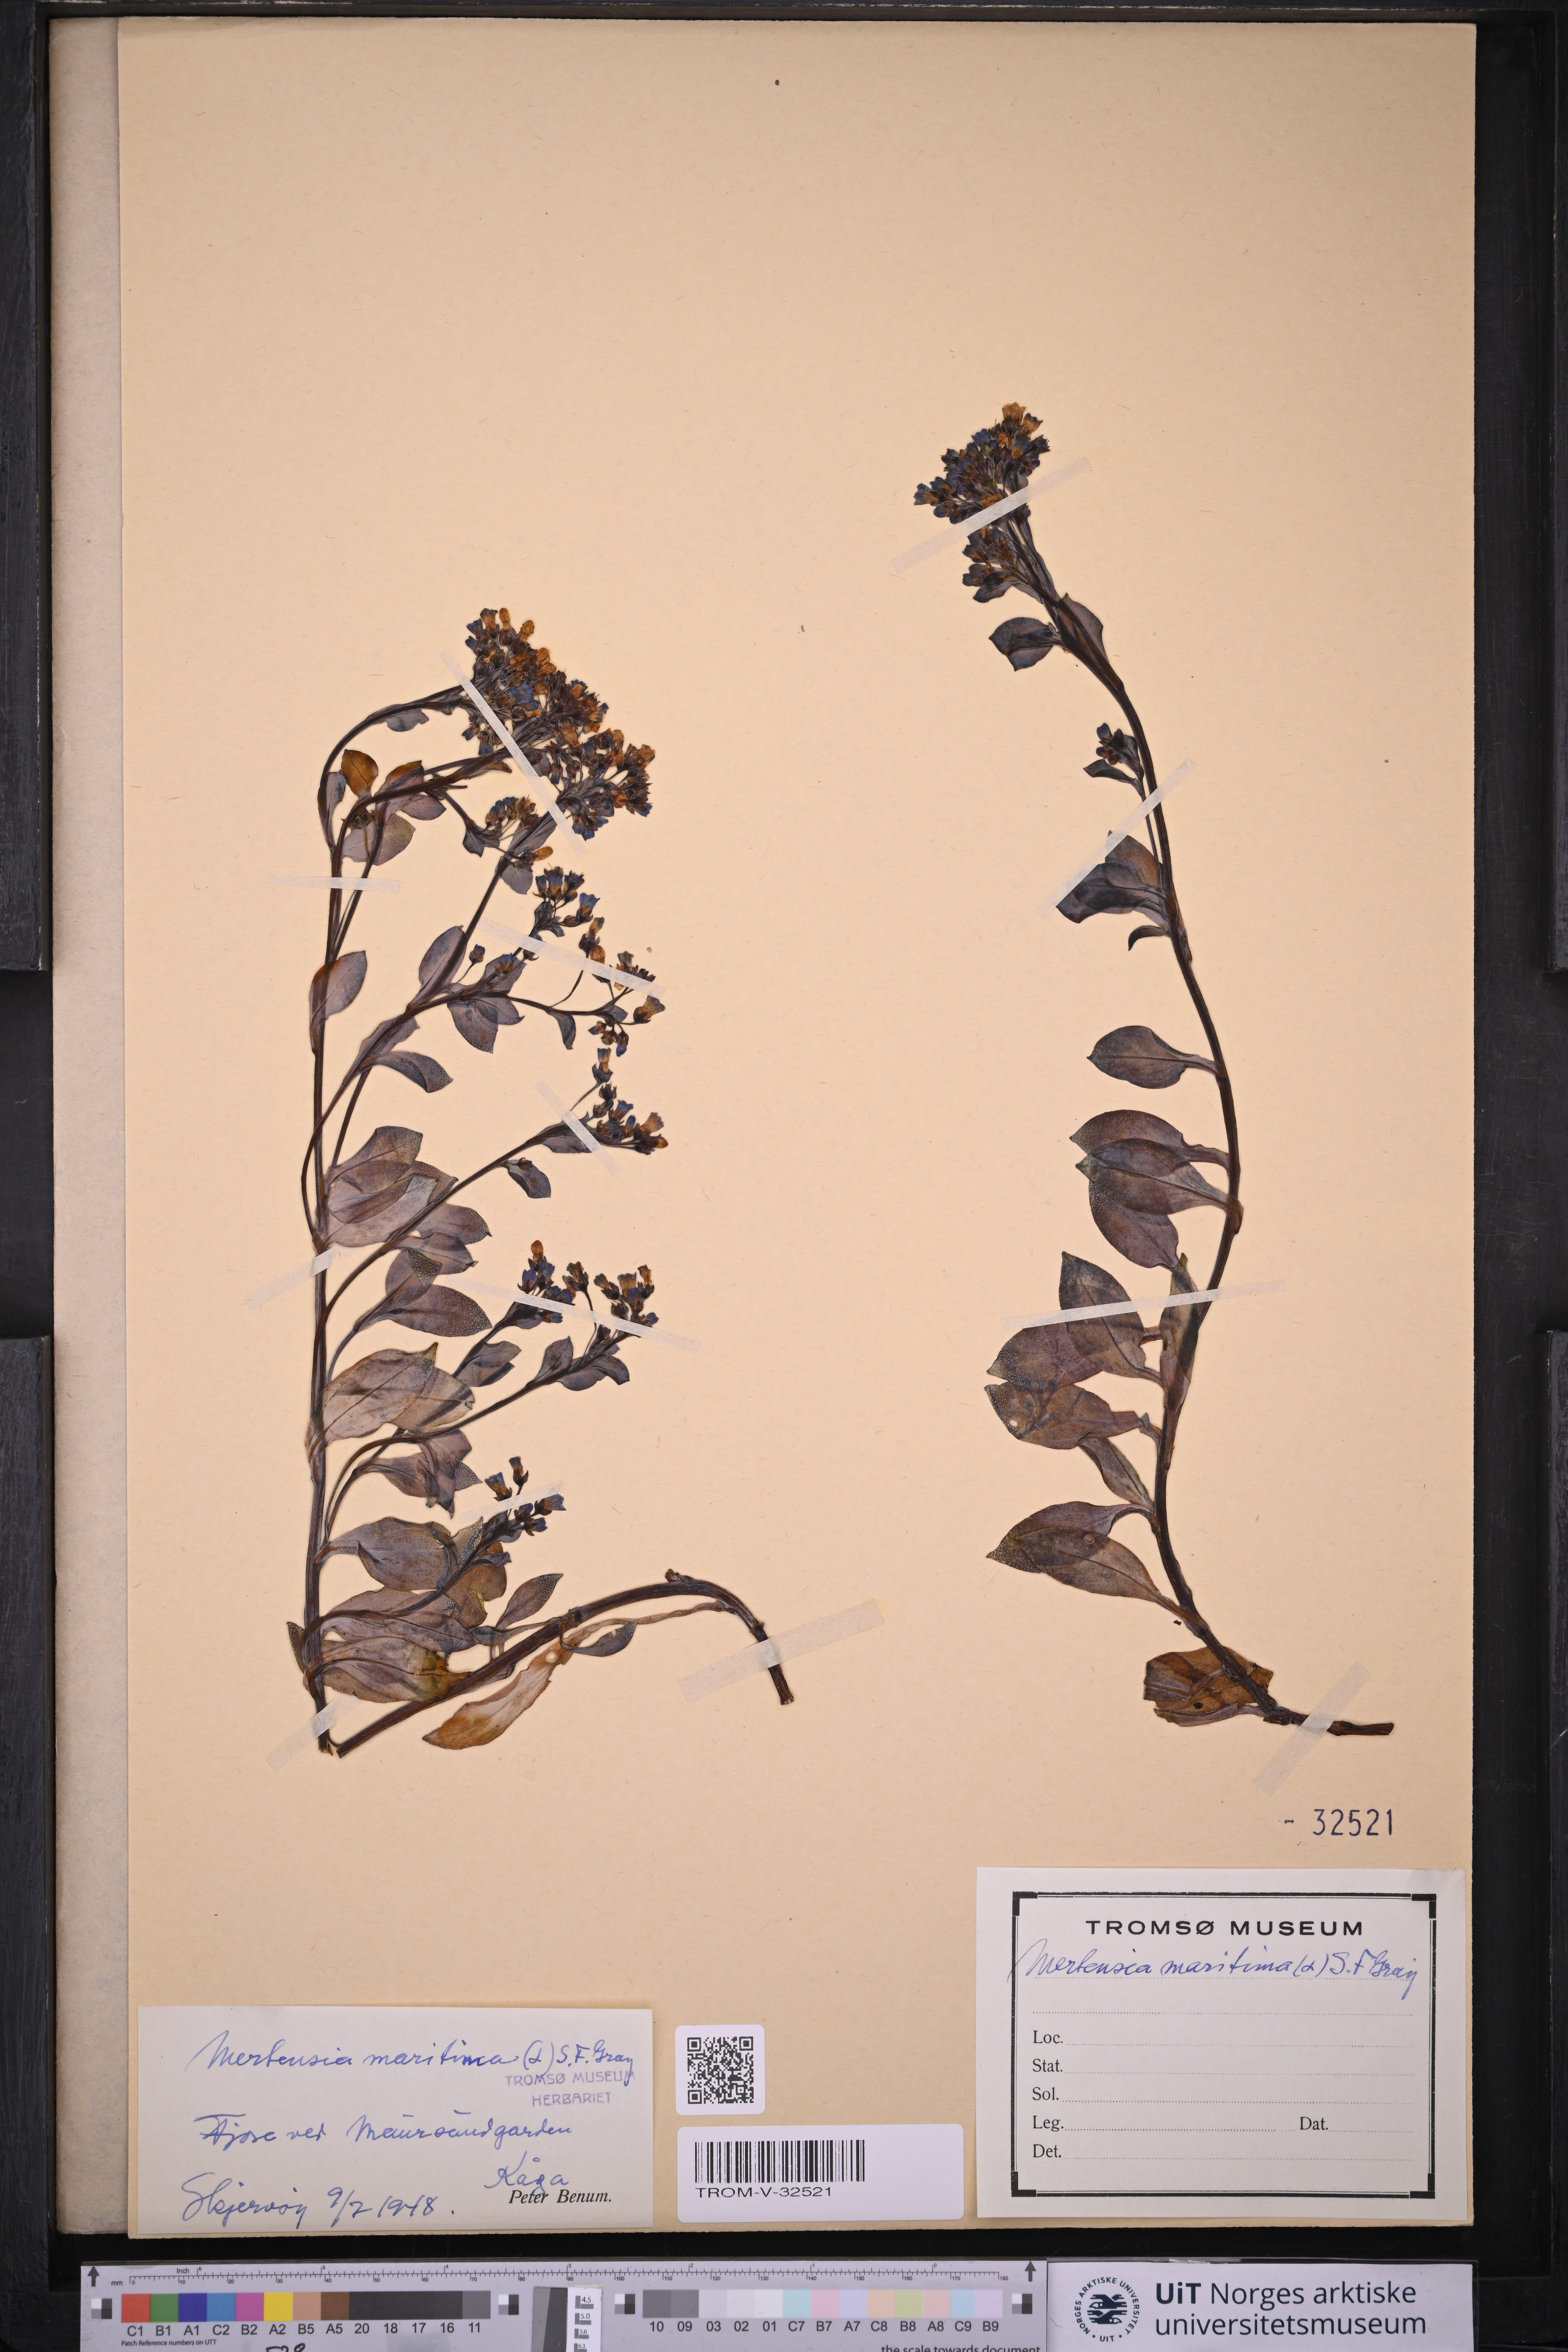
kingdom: Plantae
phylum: Tracheophyta
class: Magnoliopsida
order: Boraginales
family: Boraginaceae
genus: Mertensia
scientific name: Mertensia maritima
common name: Oysterplant
